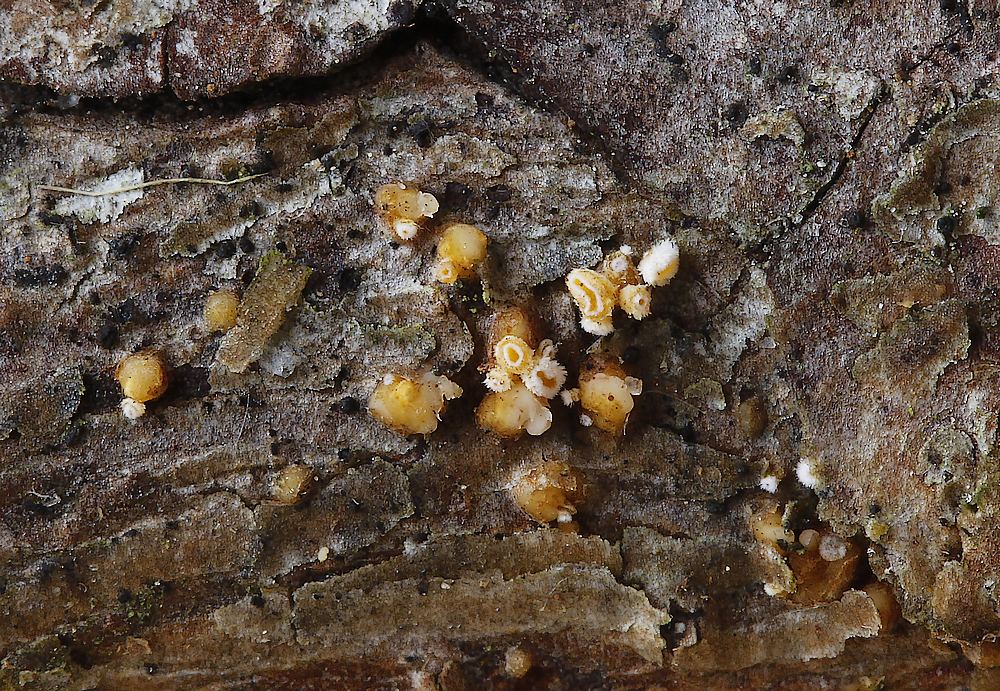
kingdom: Fungi
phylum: Ascomycota
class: Leotiomycetes
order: Helotiales
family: Lachnaceae
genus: Lachnellula
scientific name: Lachnellula
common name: frynseskive
